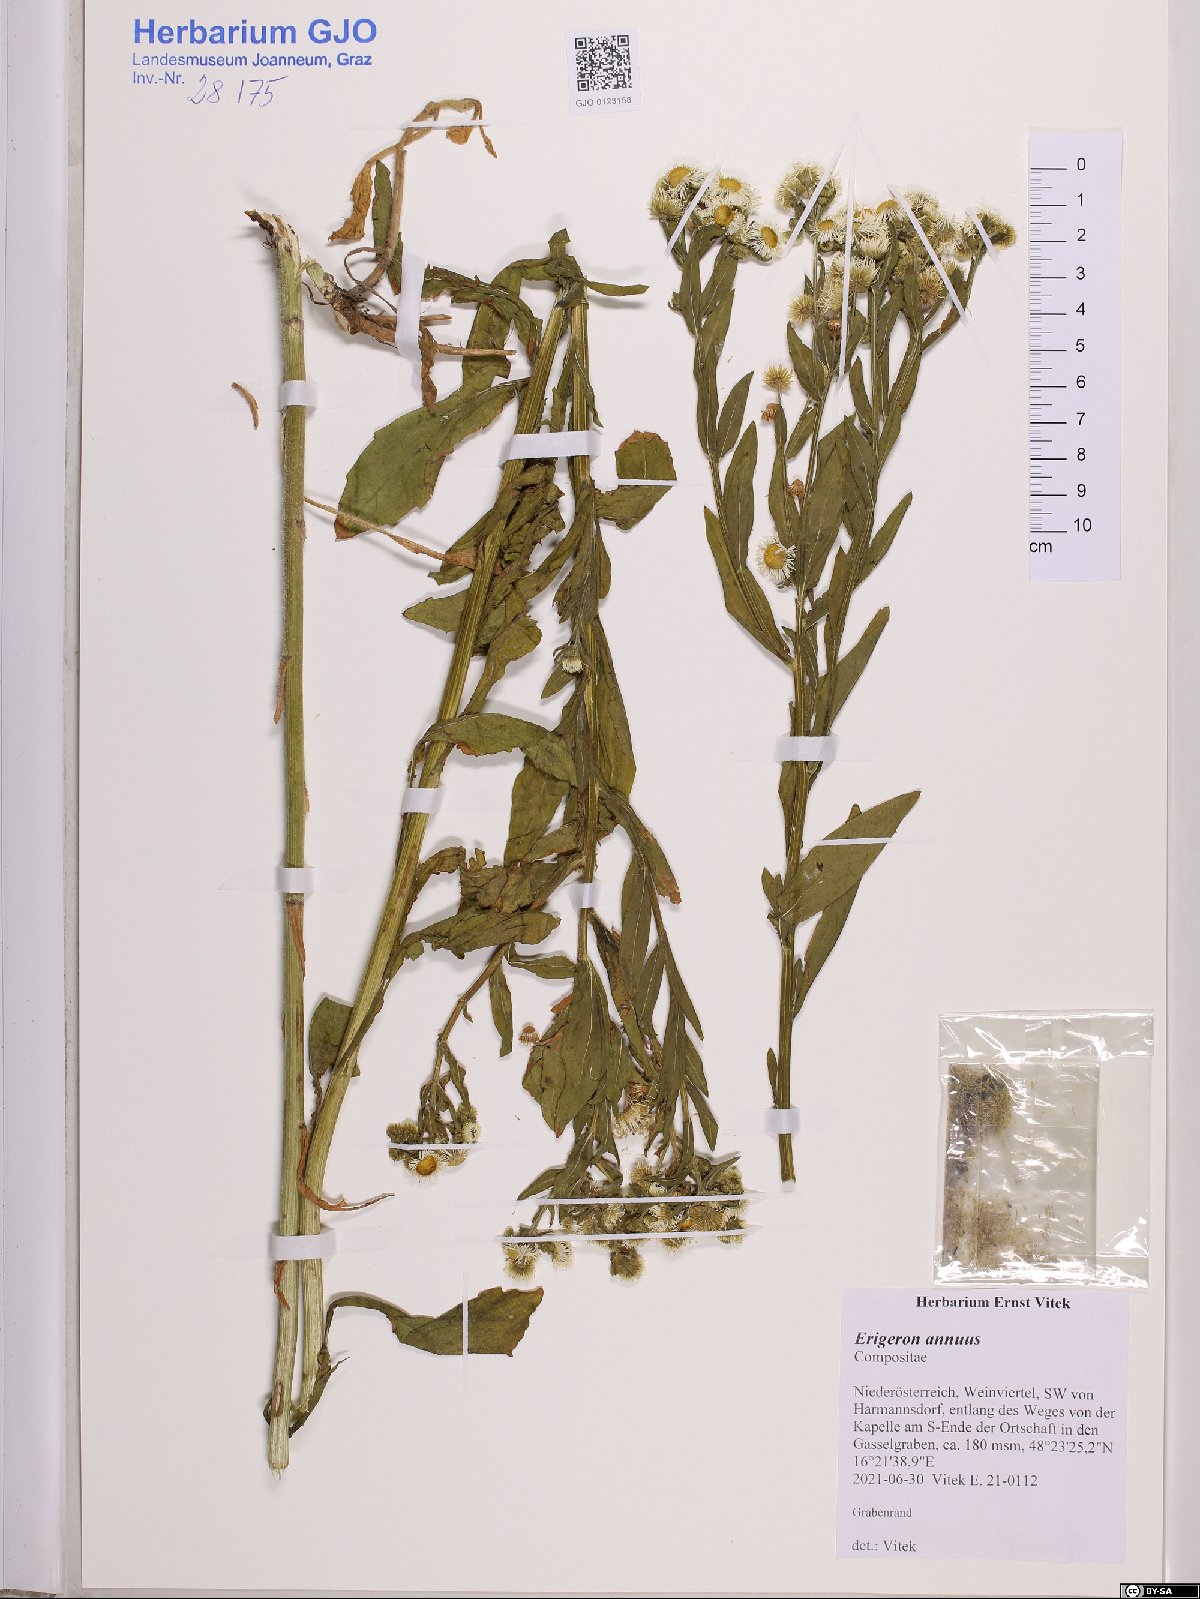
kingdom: Plantae
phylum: Tracheophyta
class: Magnoliopsida
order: Asterales
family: Asteraceae
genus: Erigeron
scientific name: Erigeron annuus
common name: Tall fleabane
